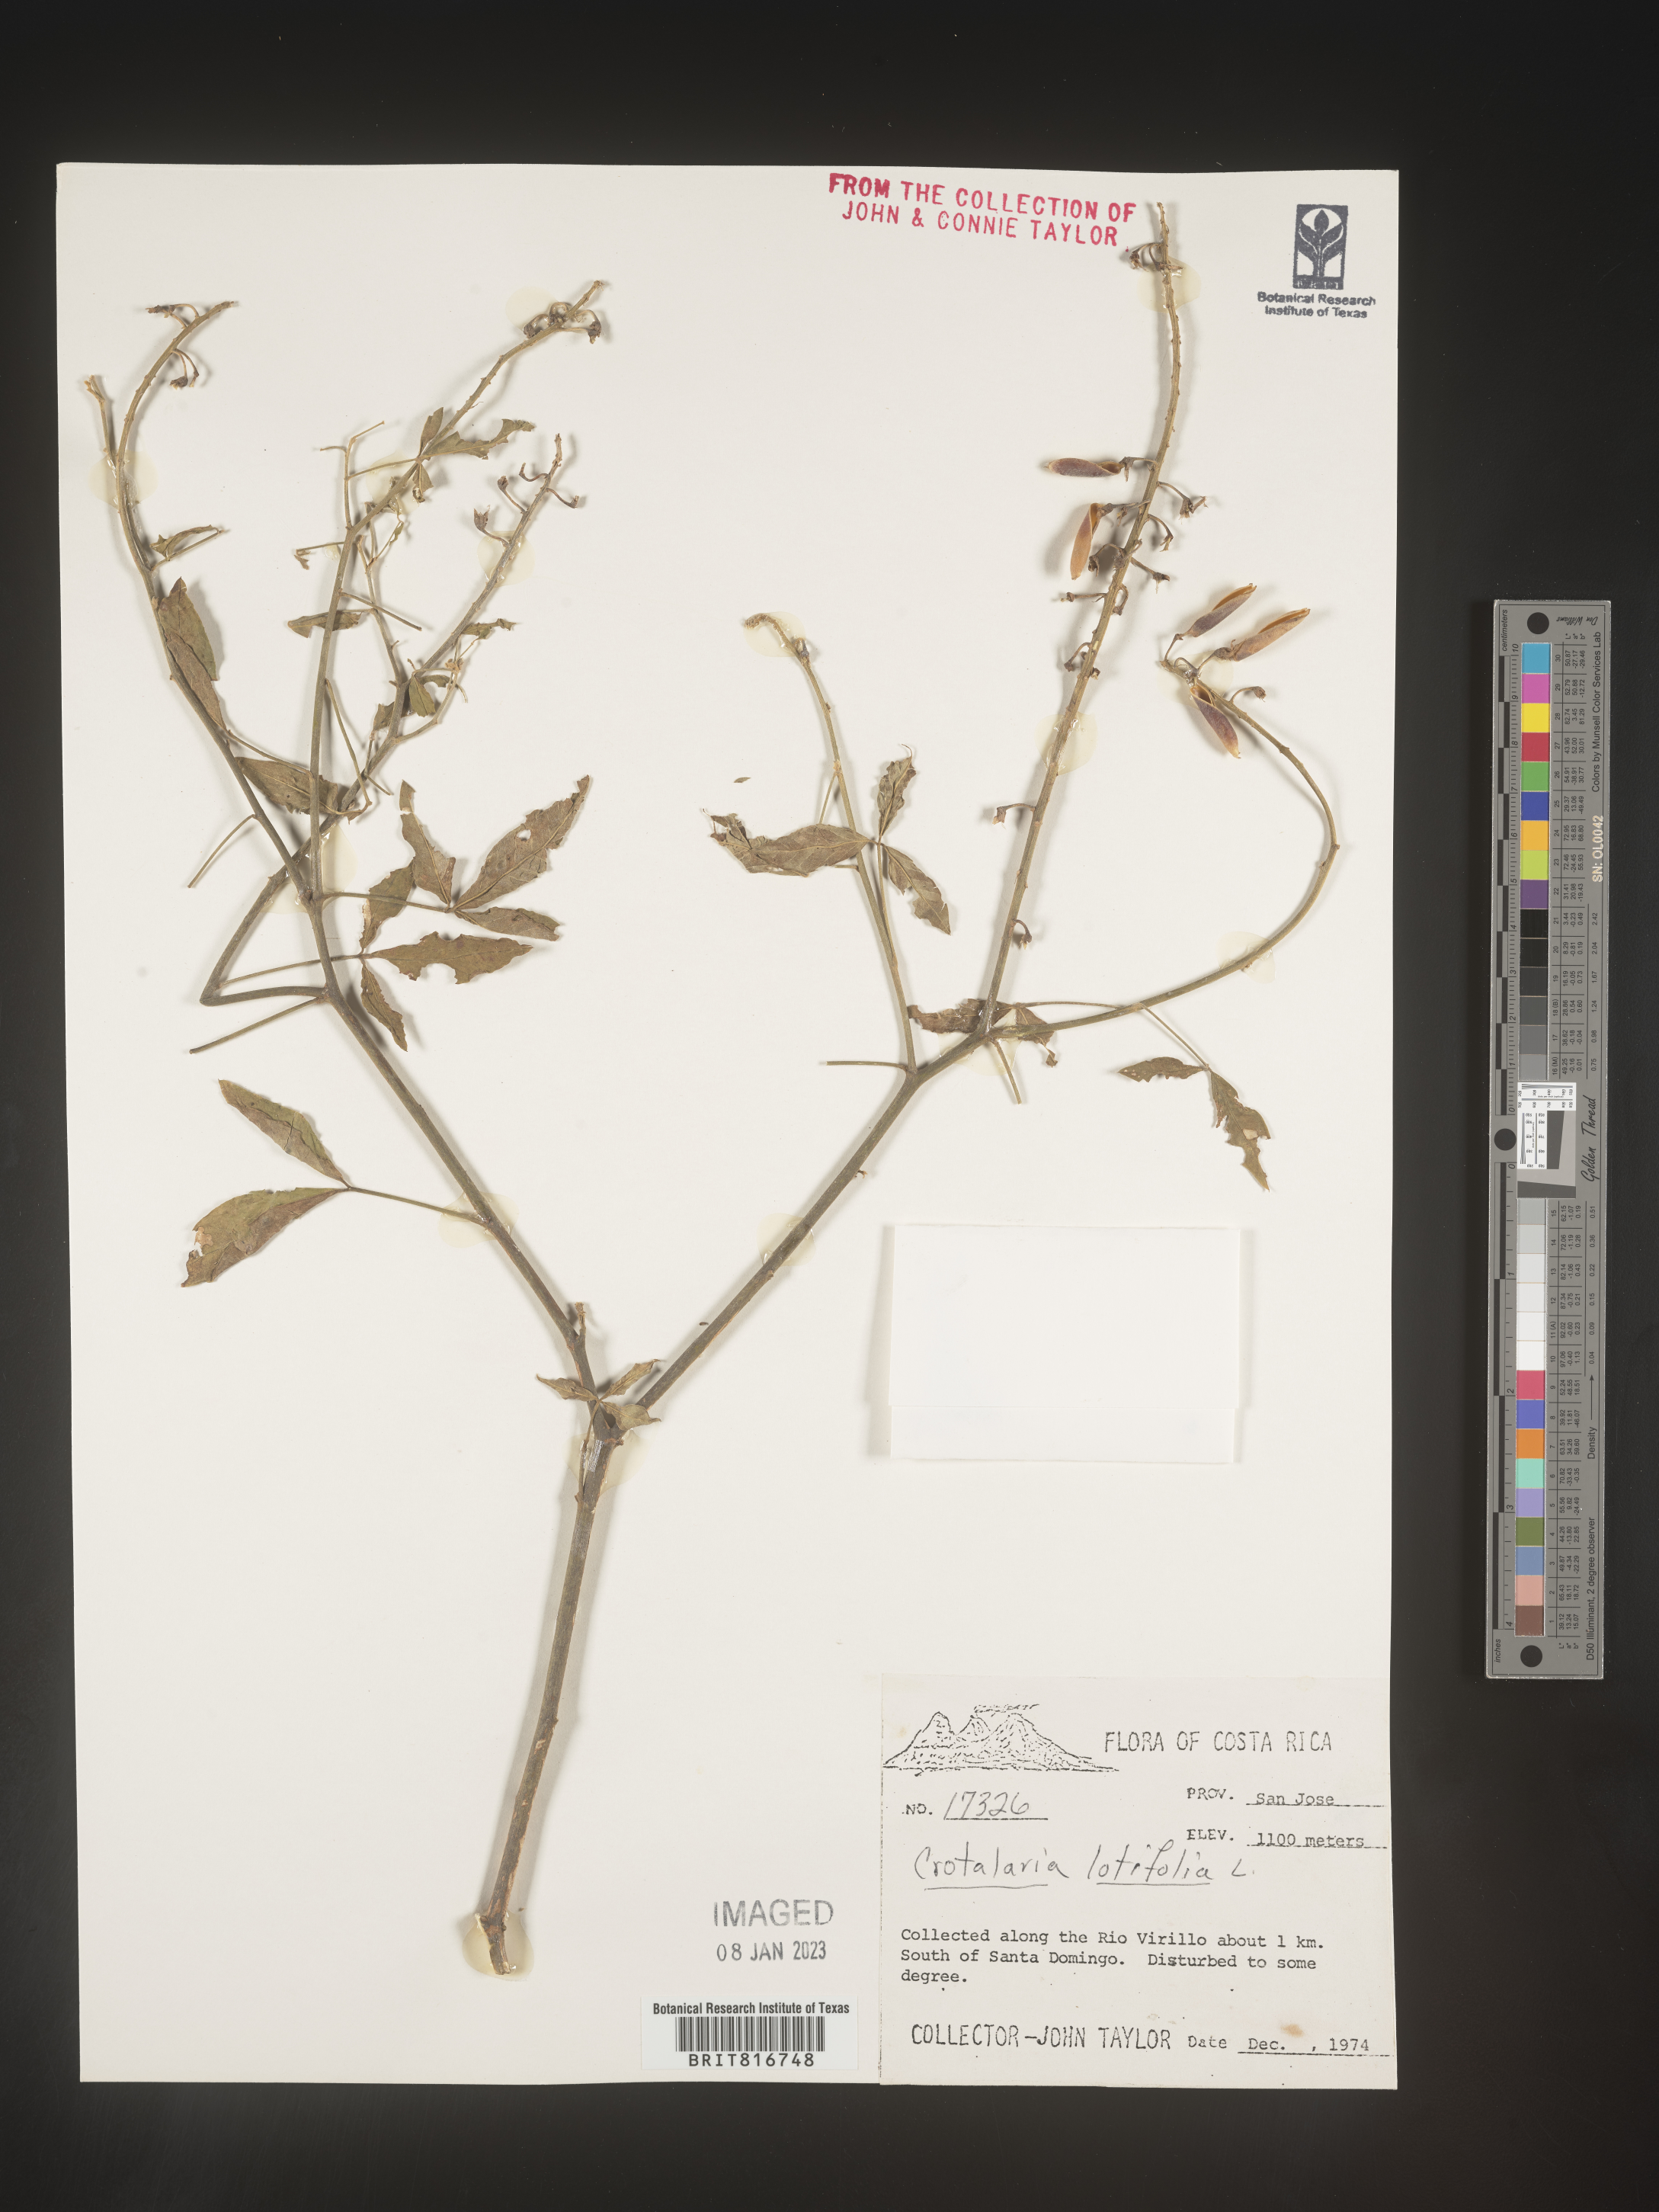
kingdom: Plantae
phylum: Tracheophyta
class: Magnoliopsida
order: Fabales
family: Fabaceae
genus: Crotalaria
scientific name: Crotalaria
